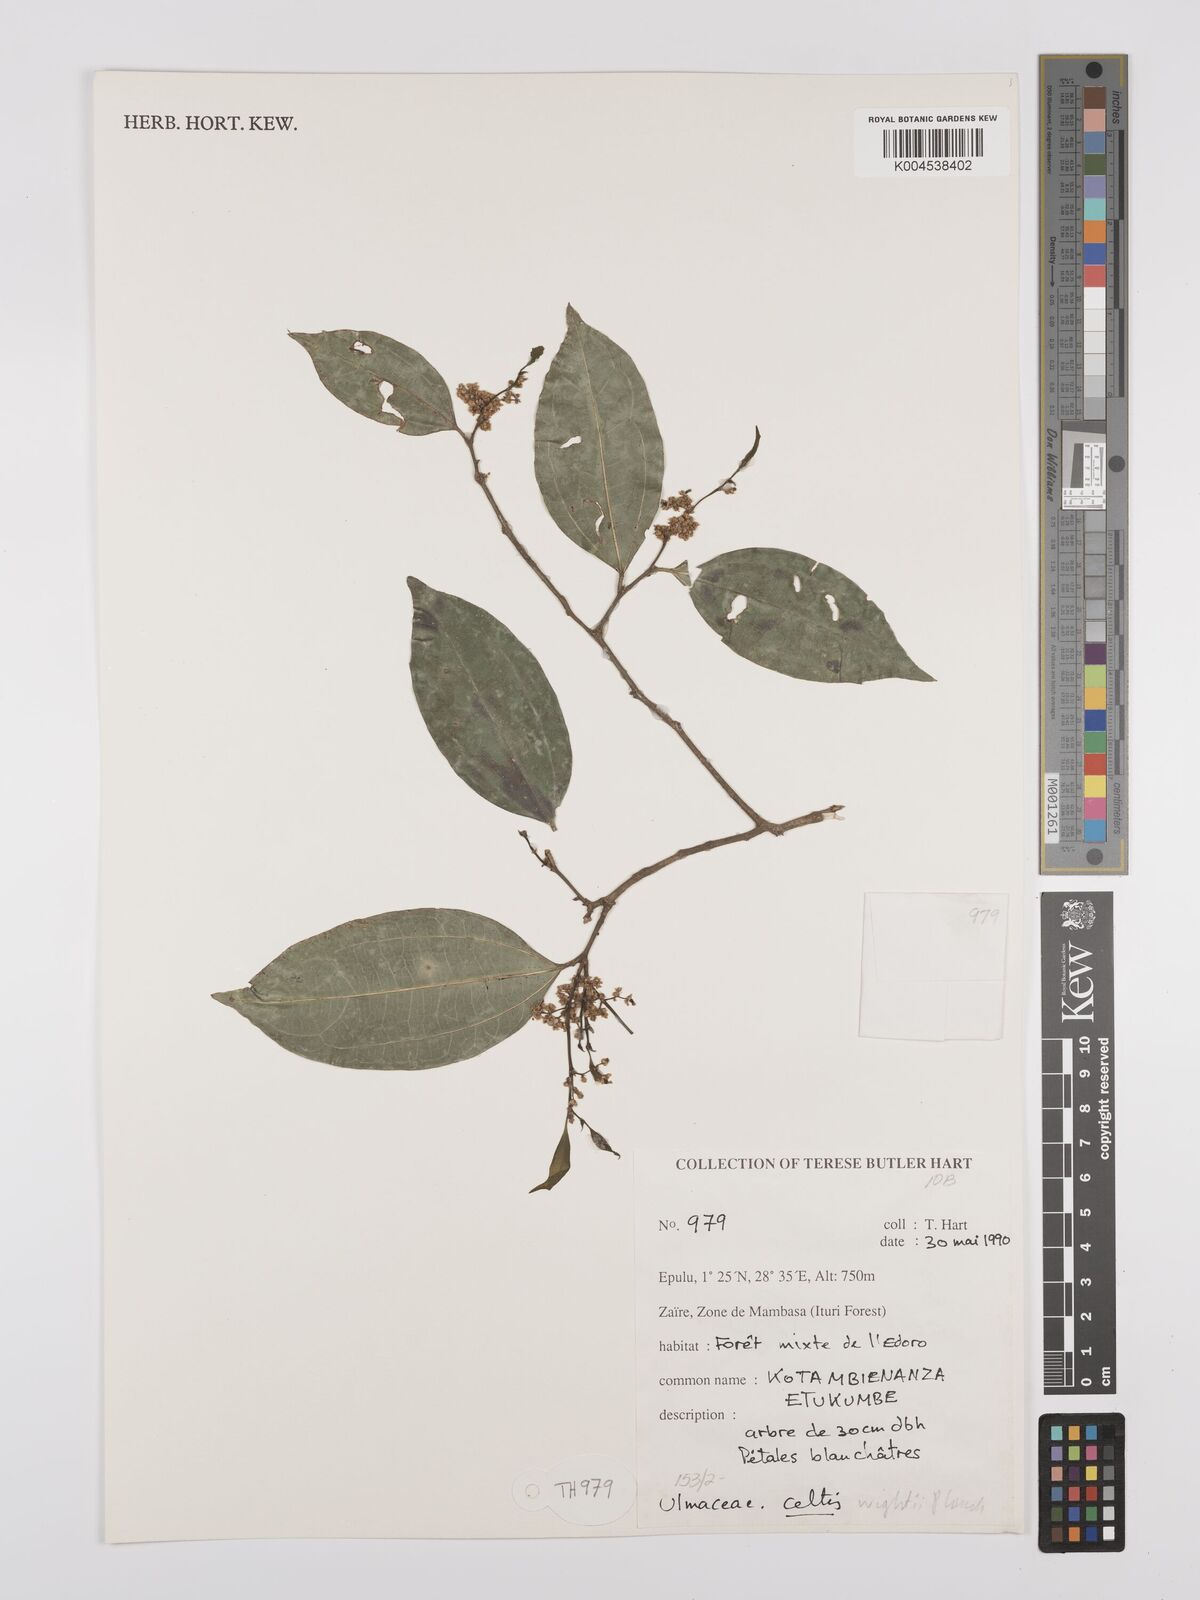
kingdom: Plantae
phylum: Tracheophyta
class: Magnoliopsida
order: Rosales
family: Cannabaceae
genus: Celtis
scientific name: Celtis philippensis
